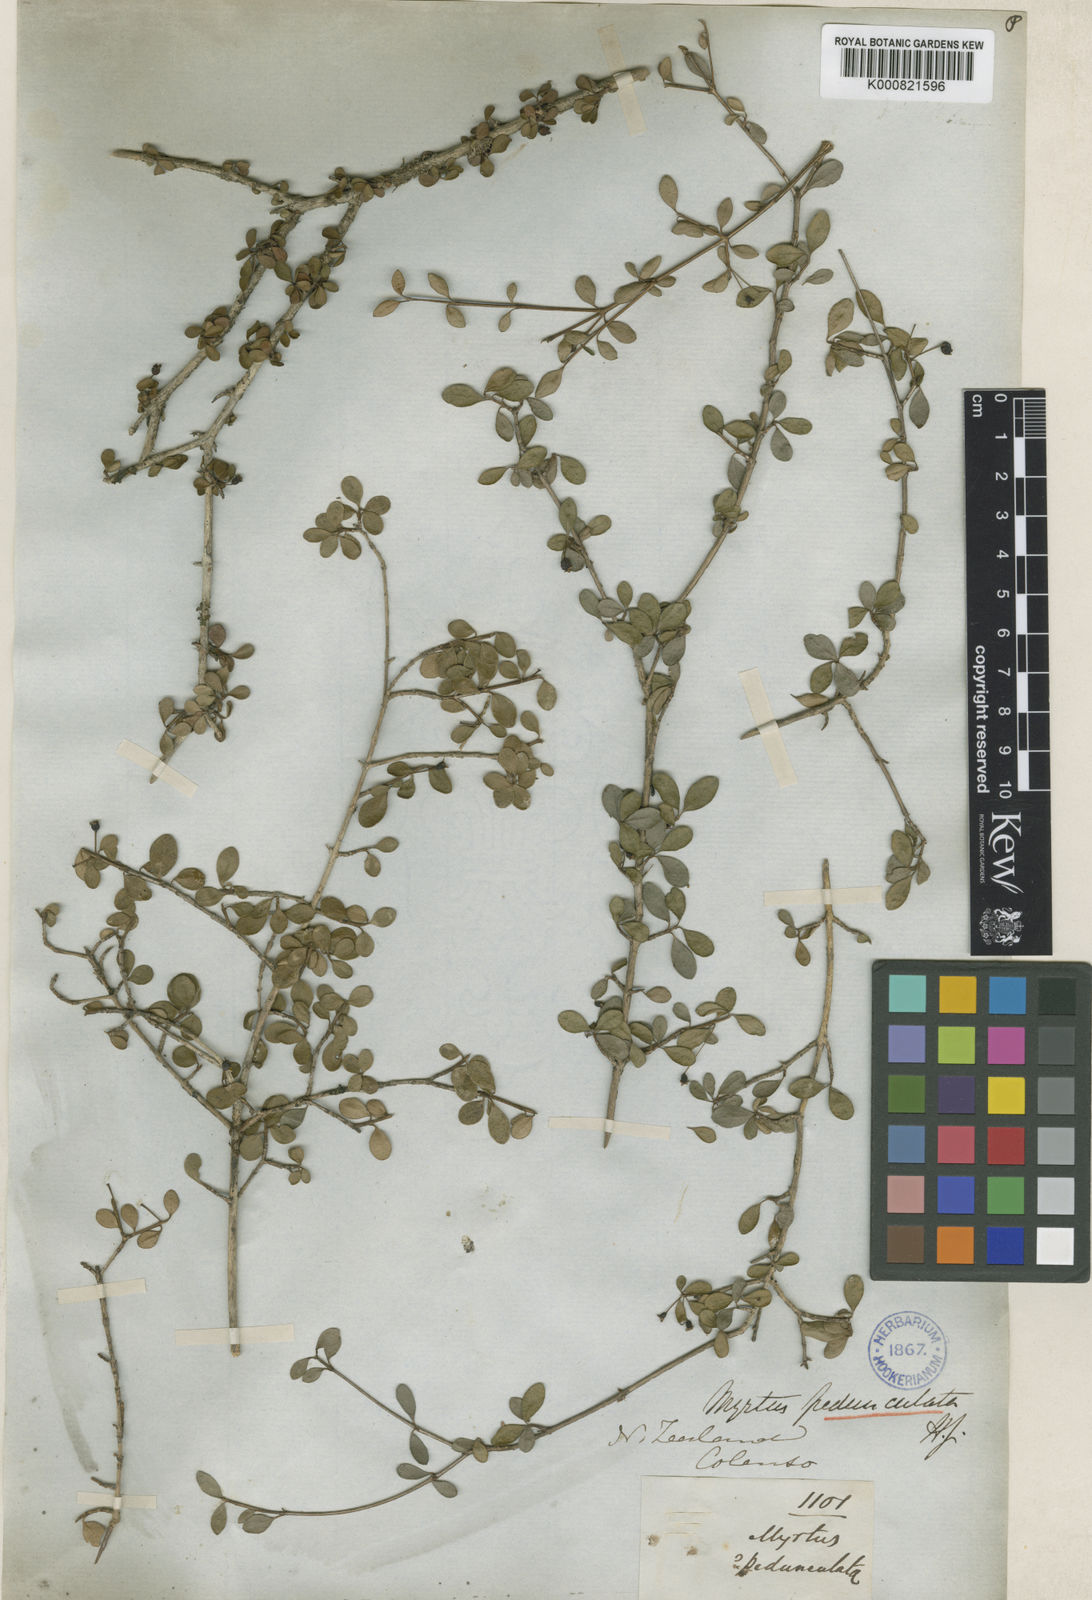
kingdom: Plantae
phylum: Tracheophyta
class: Magnoliopsida
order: Myrtales
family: Myrtaceae
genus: Neomyrtus
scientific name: Neomyrtus pedunculata
